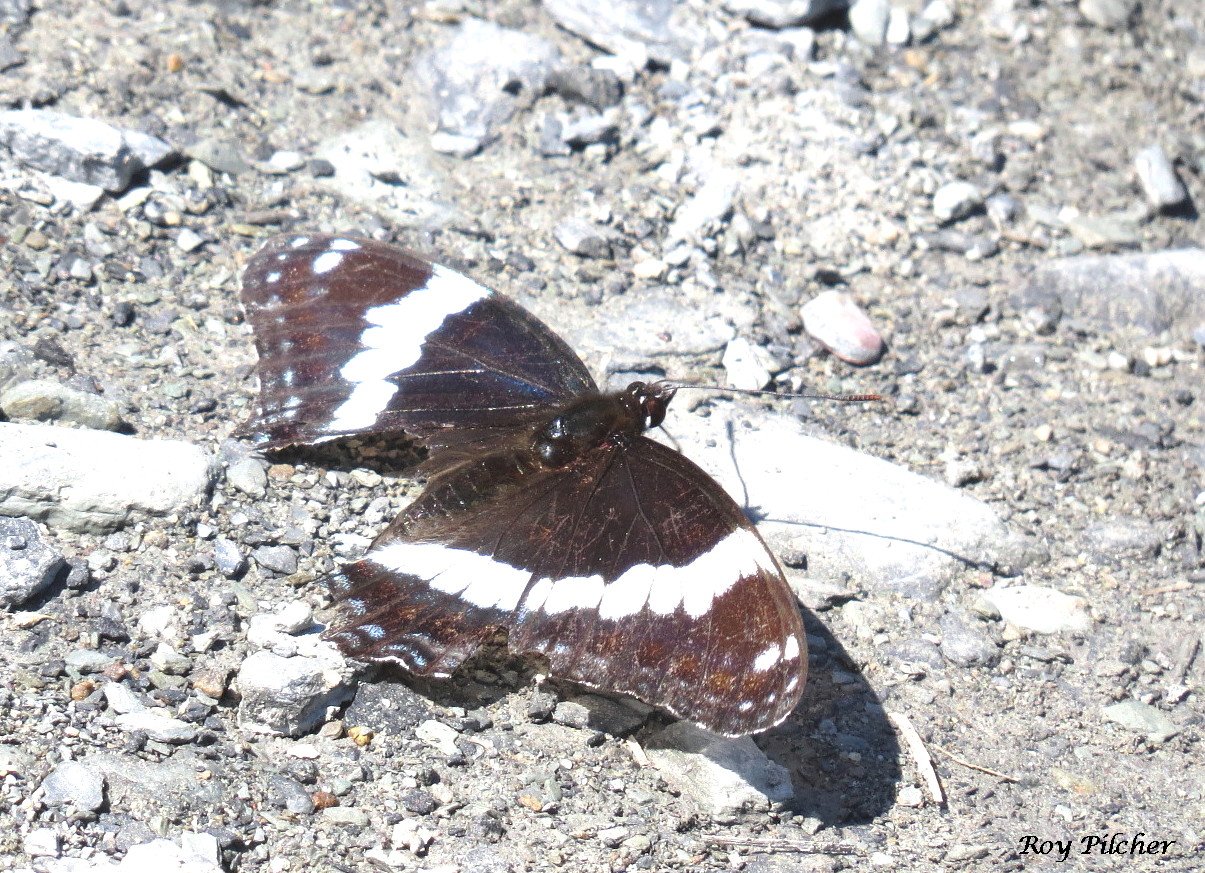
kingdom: Animalia
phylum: Arthropoda
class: Insecta
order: Lepidoptera
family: Nymphalidae
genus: Limenitis
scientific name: Limenitis arthemis
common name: Red-spotted Admiral
